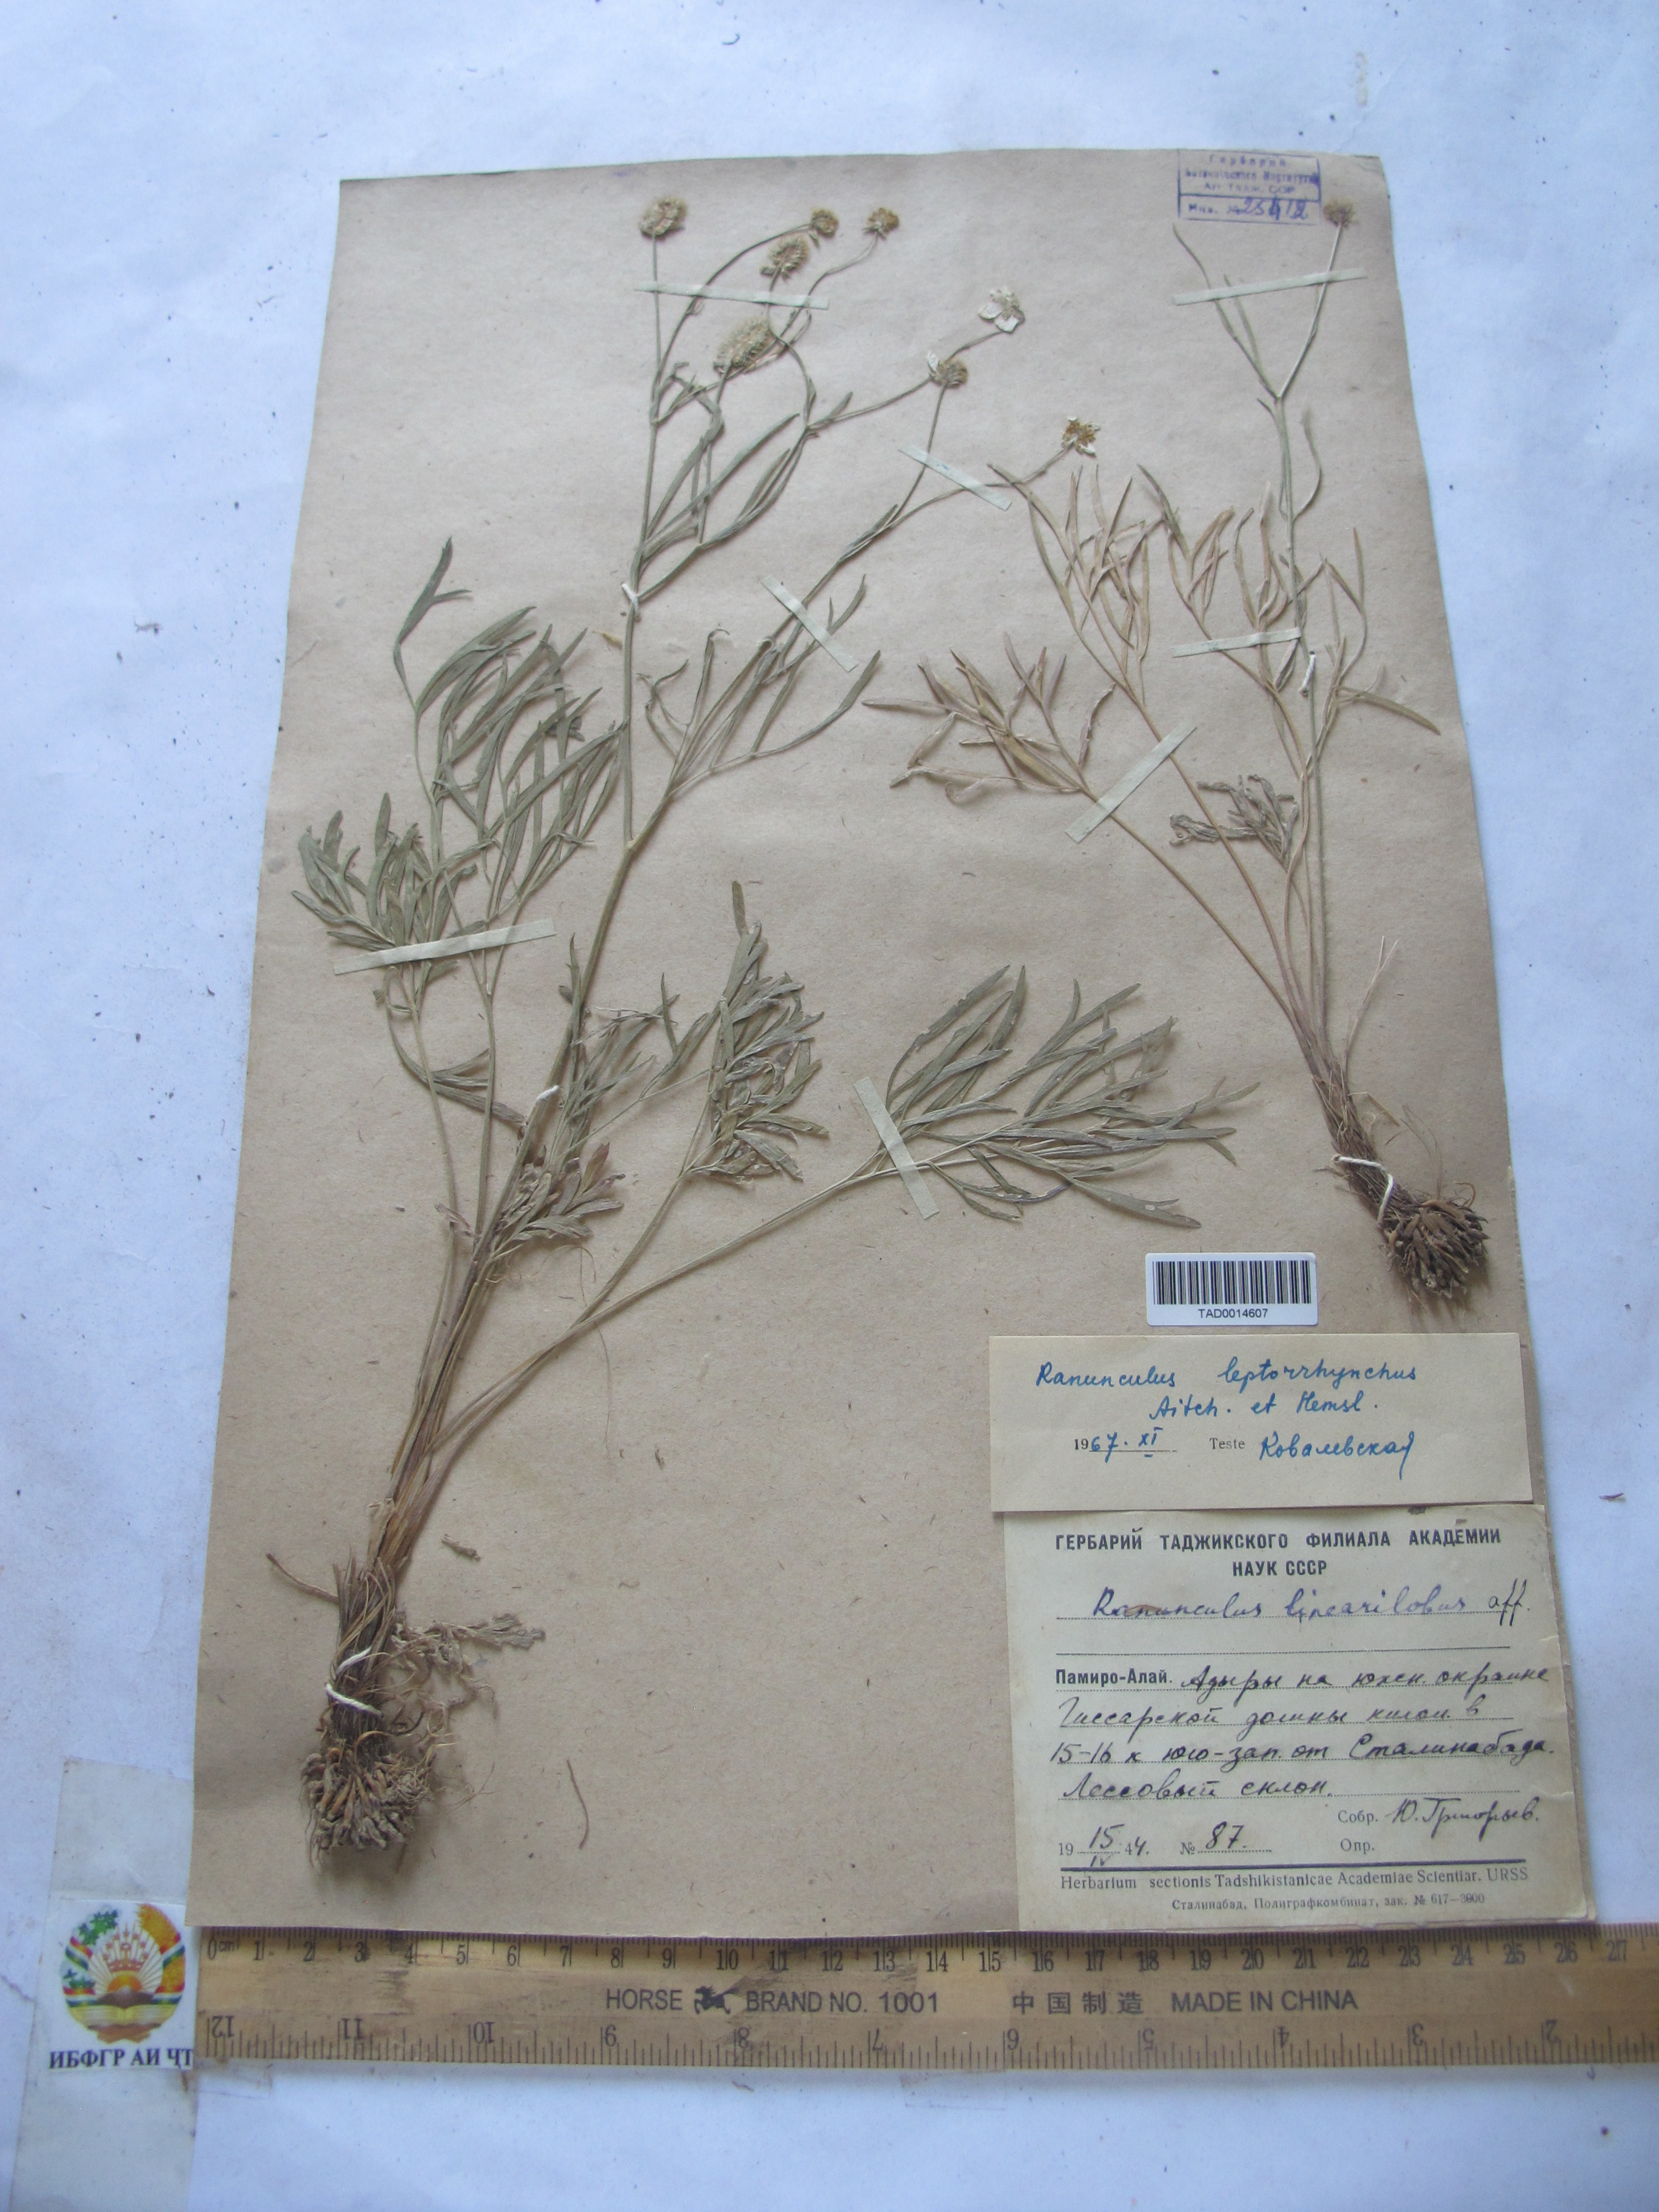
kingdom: Plantae
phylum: Tracheophyta
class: Magnoliopsida
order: Ranunculales
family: Ranunculaceae
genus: Ranunculus
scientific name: Ranunculus linearilobus
